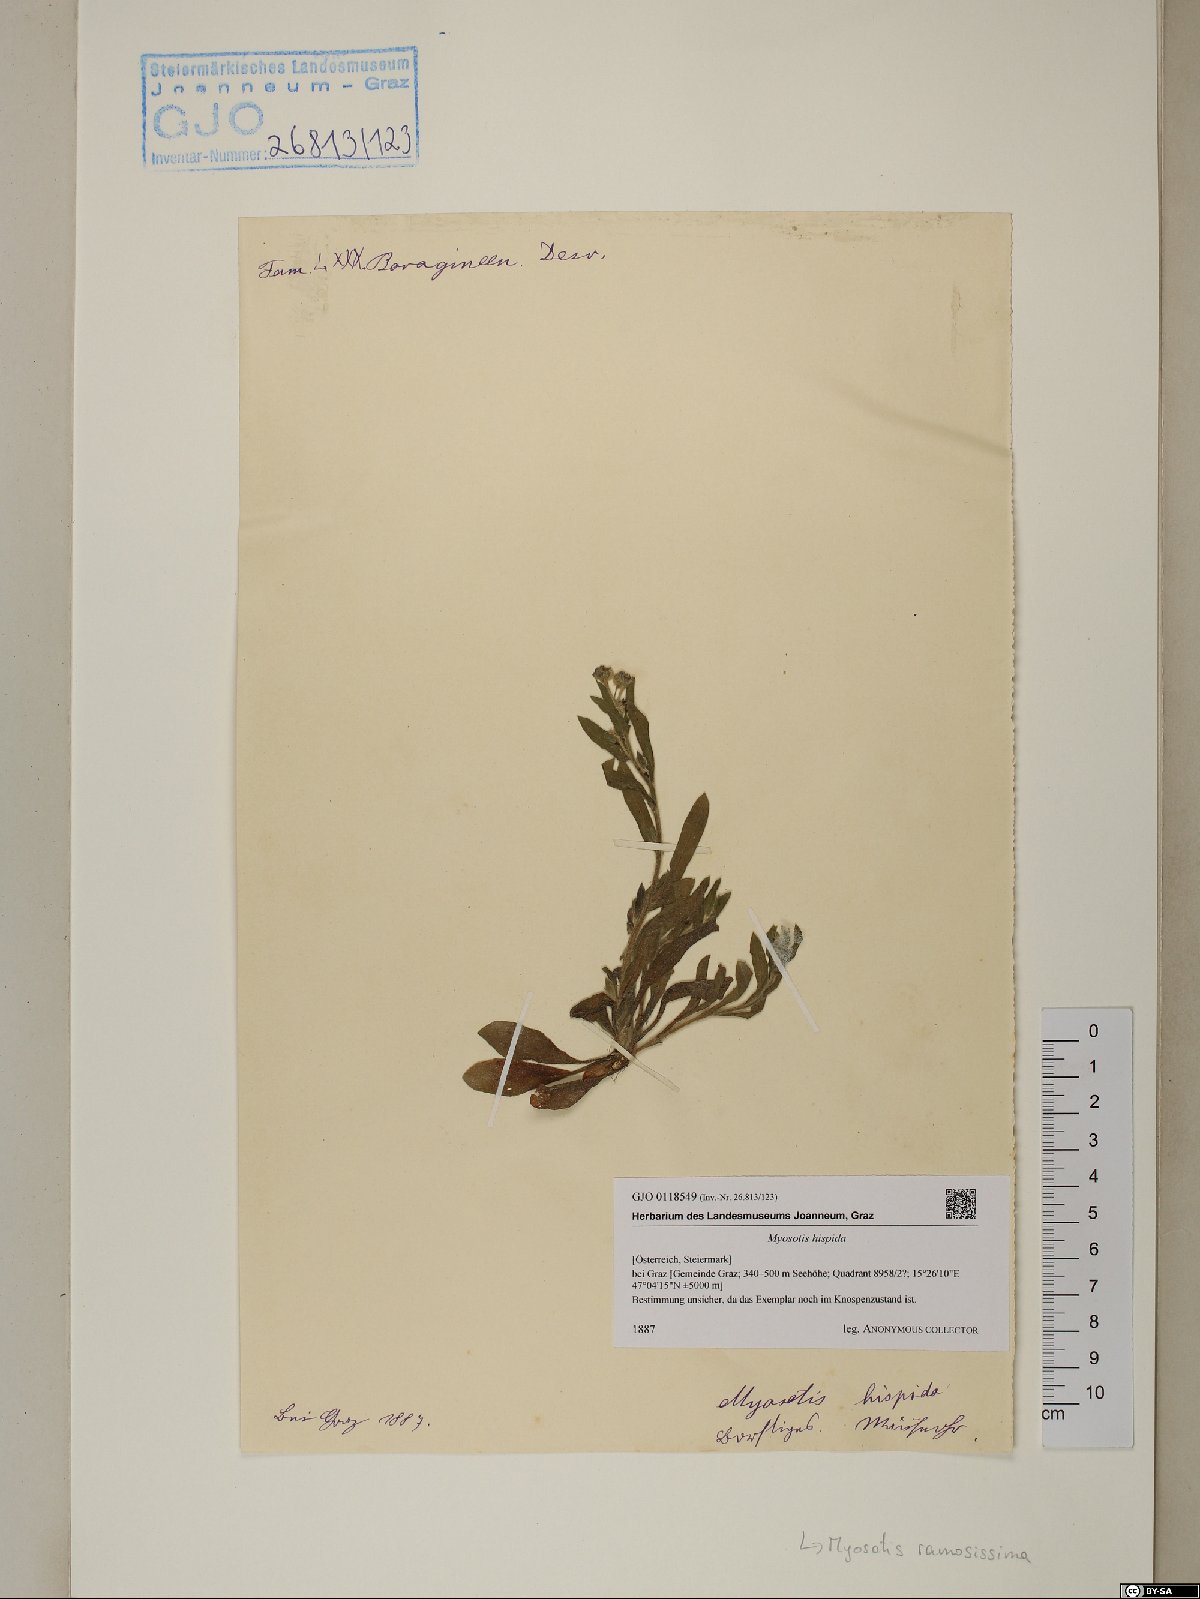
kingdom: Plantae
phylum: Tracheophyta
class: Magnoliopsida
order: Boraginales
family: Boraginaceae
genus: Myosotis
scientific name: Myosotis ramosissima
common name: Early forget-me-not
